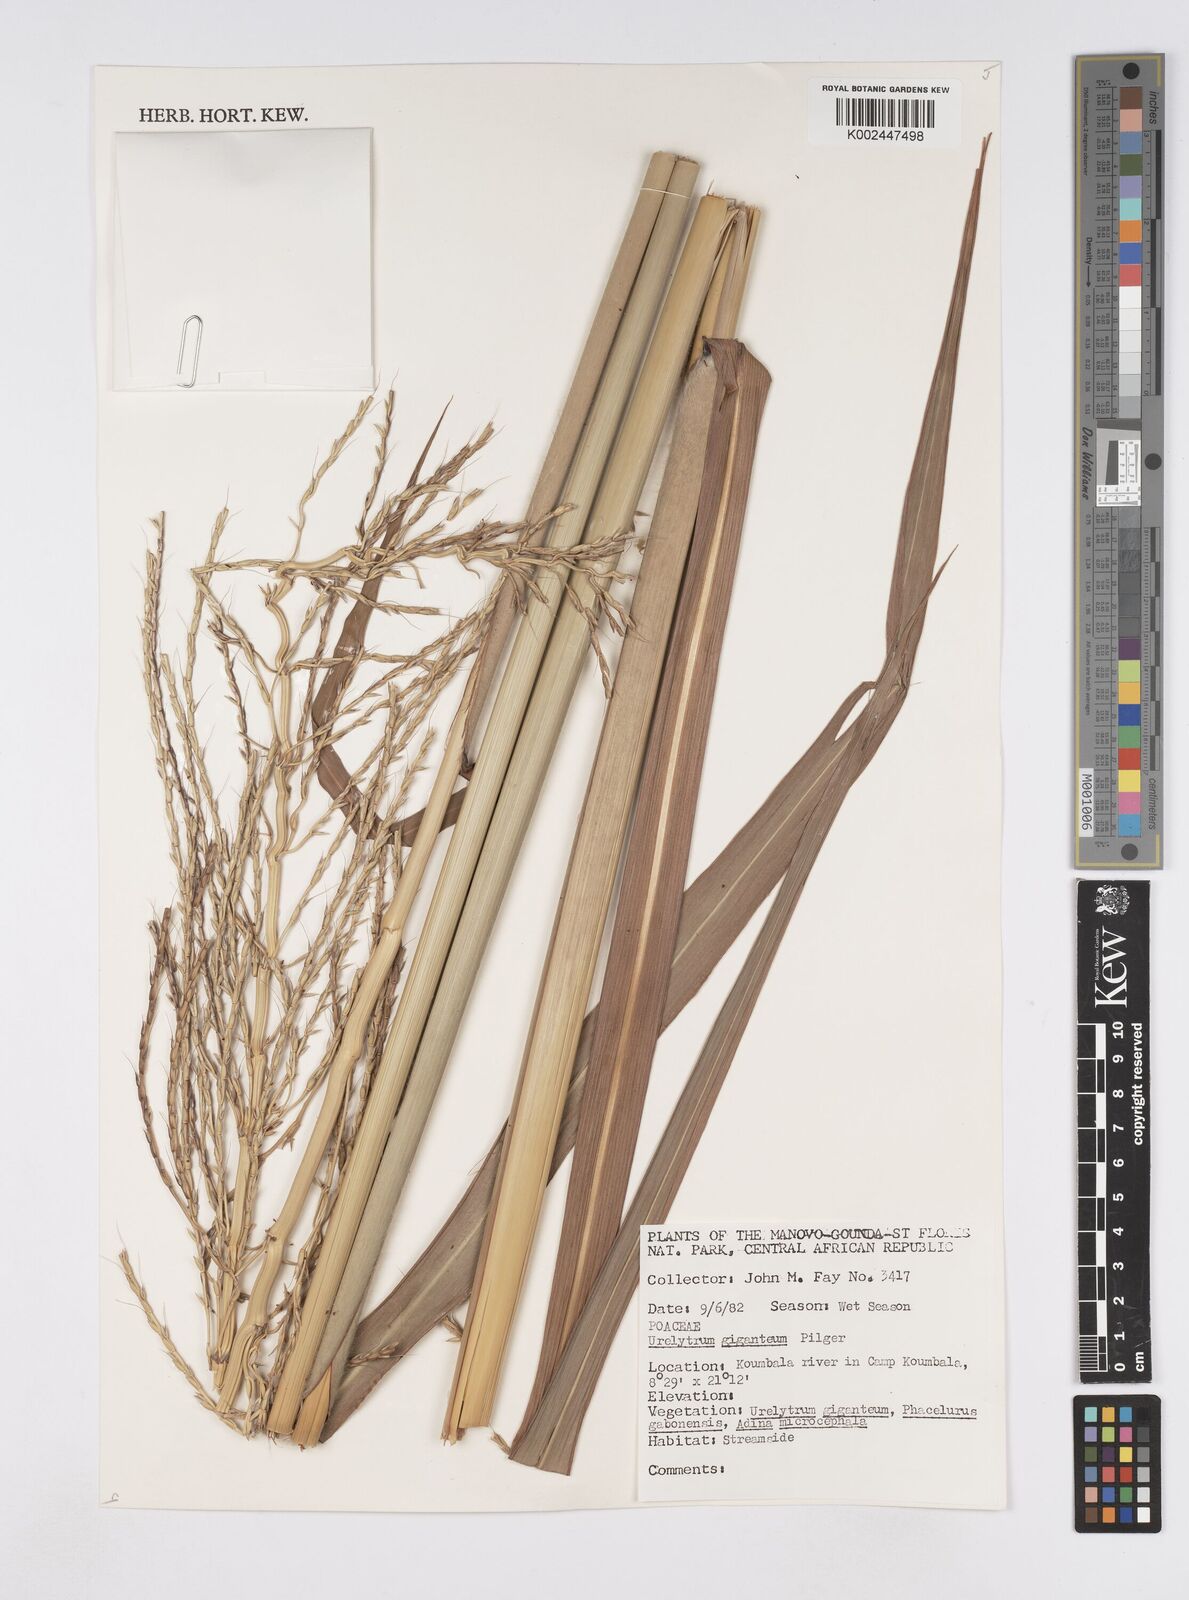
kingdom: Plantae
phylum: Tracheophyta
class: Liliopsida
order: Poales
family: Poaceae
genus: Urelytrum
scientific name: Urelytrum giganteum
